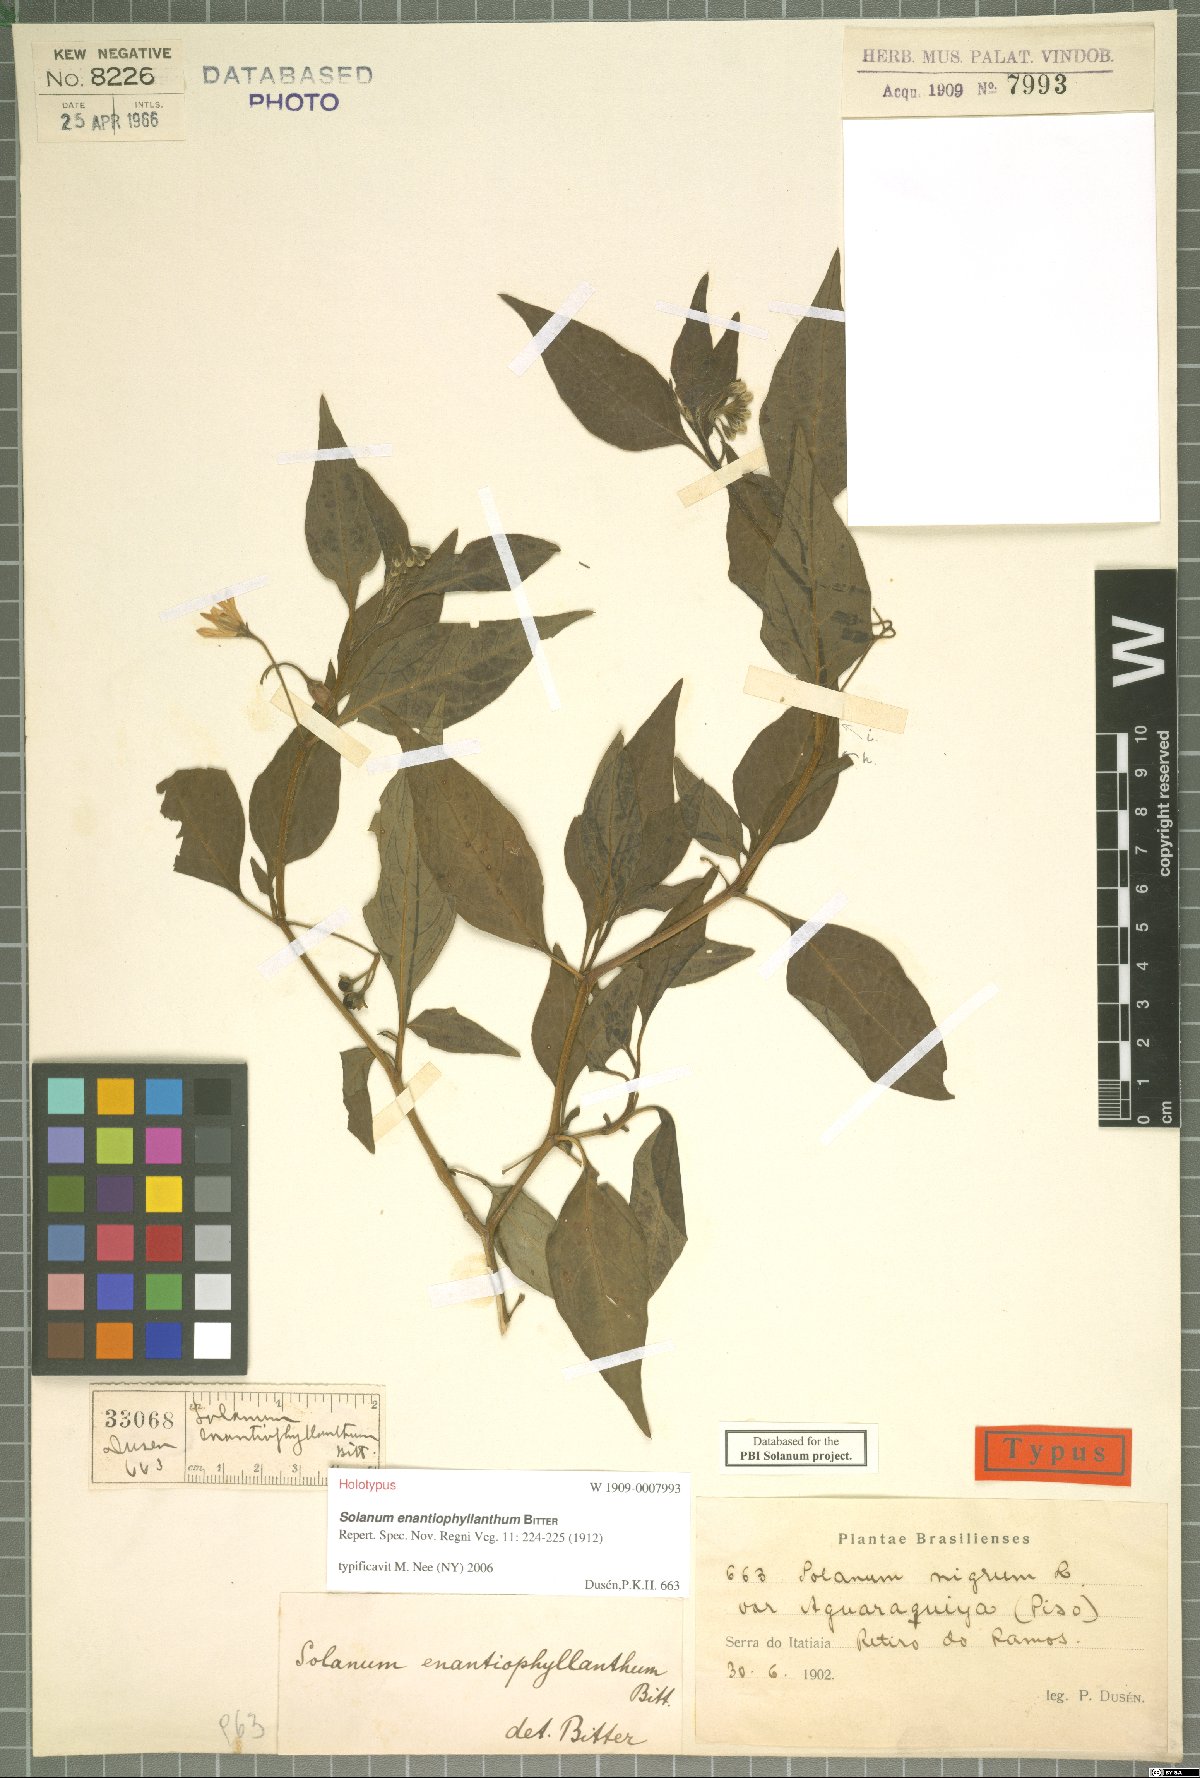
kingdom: Plantae
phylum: Tracheophyta
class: Magnoliopsida
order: Solanales
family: Solanaceae
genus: Solanum
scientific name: Solanum enantiophyllanthum
